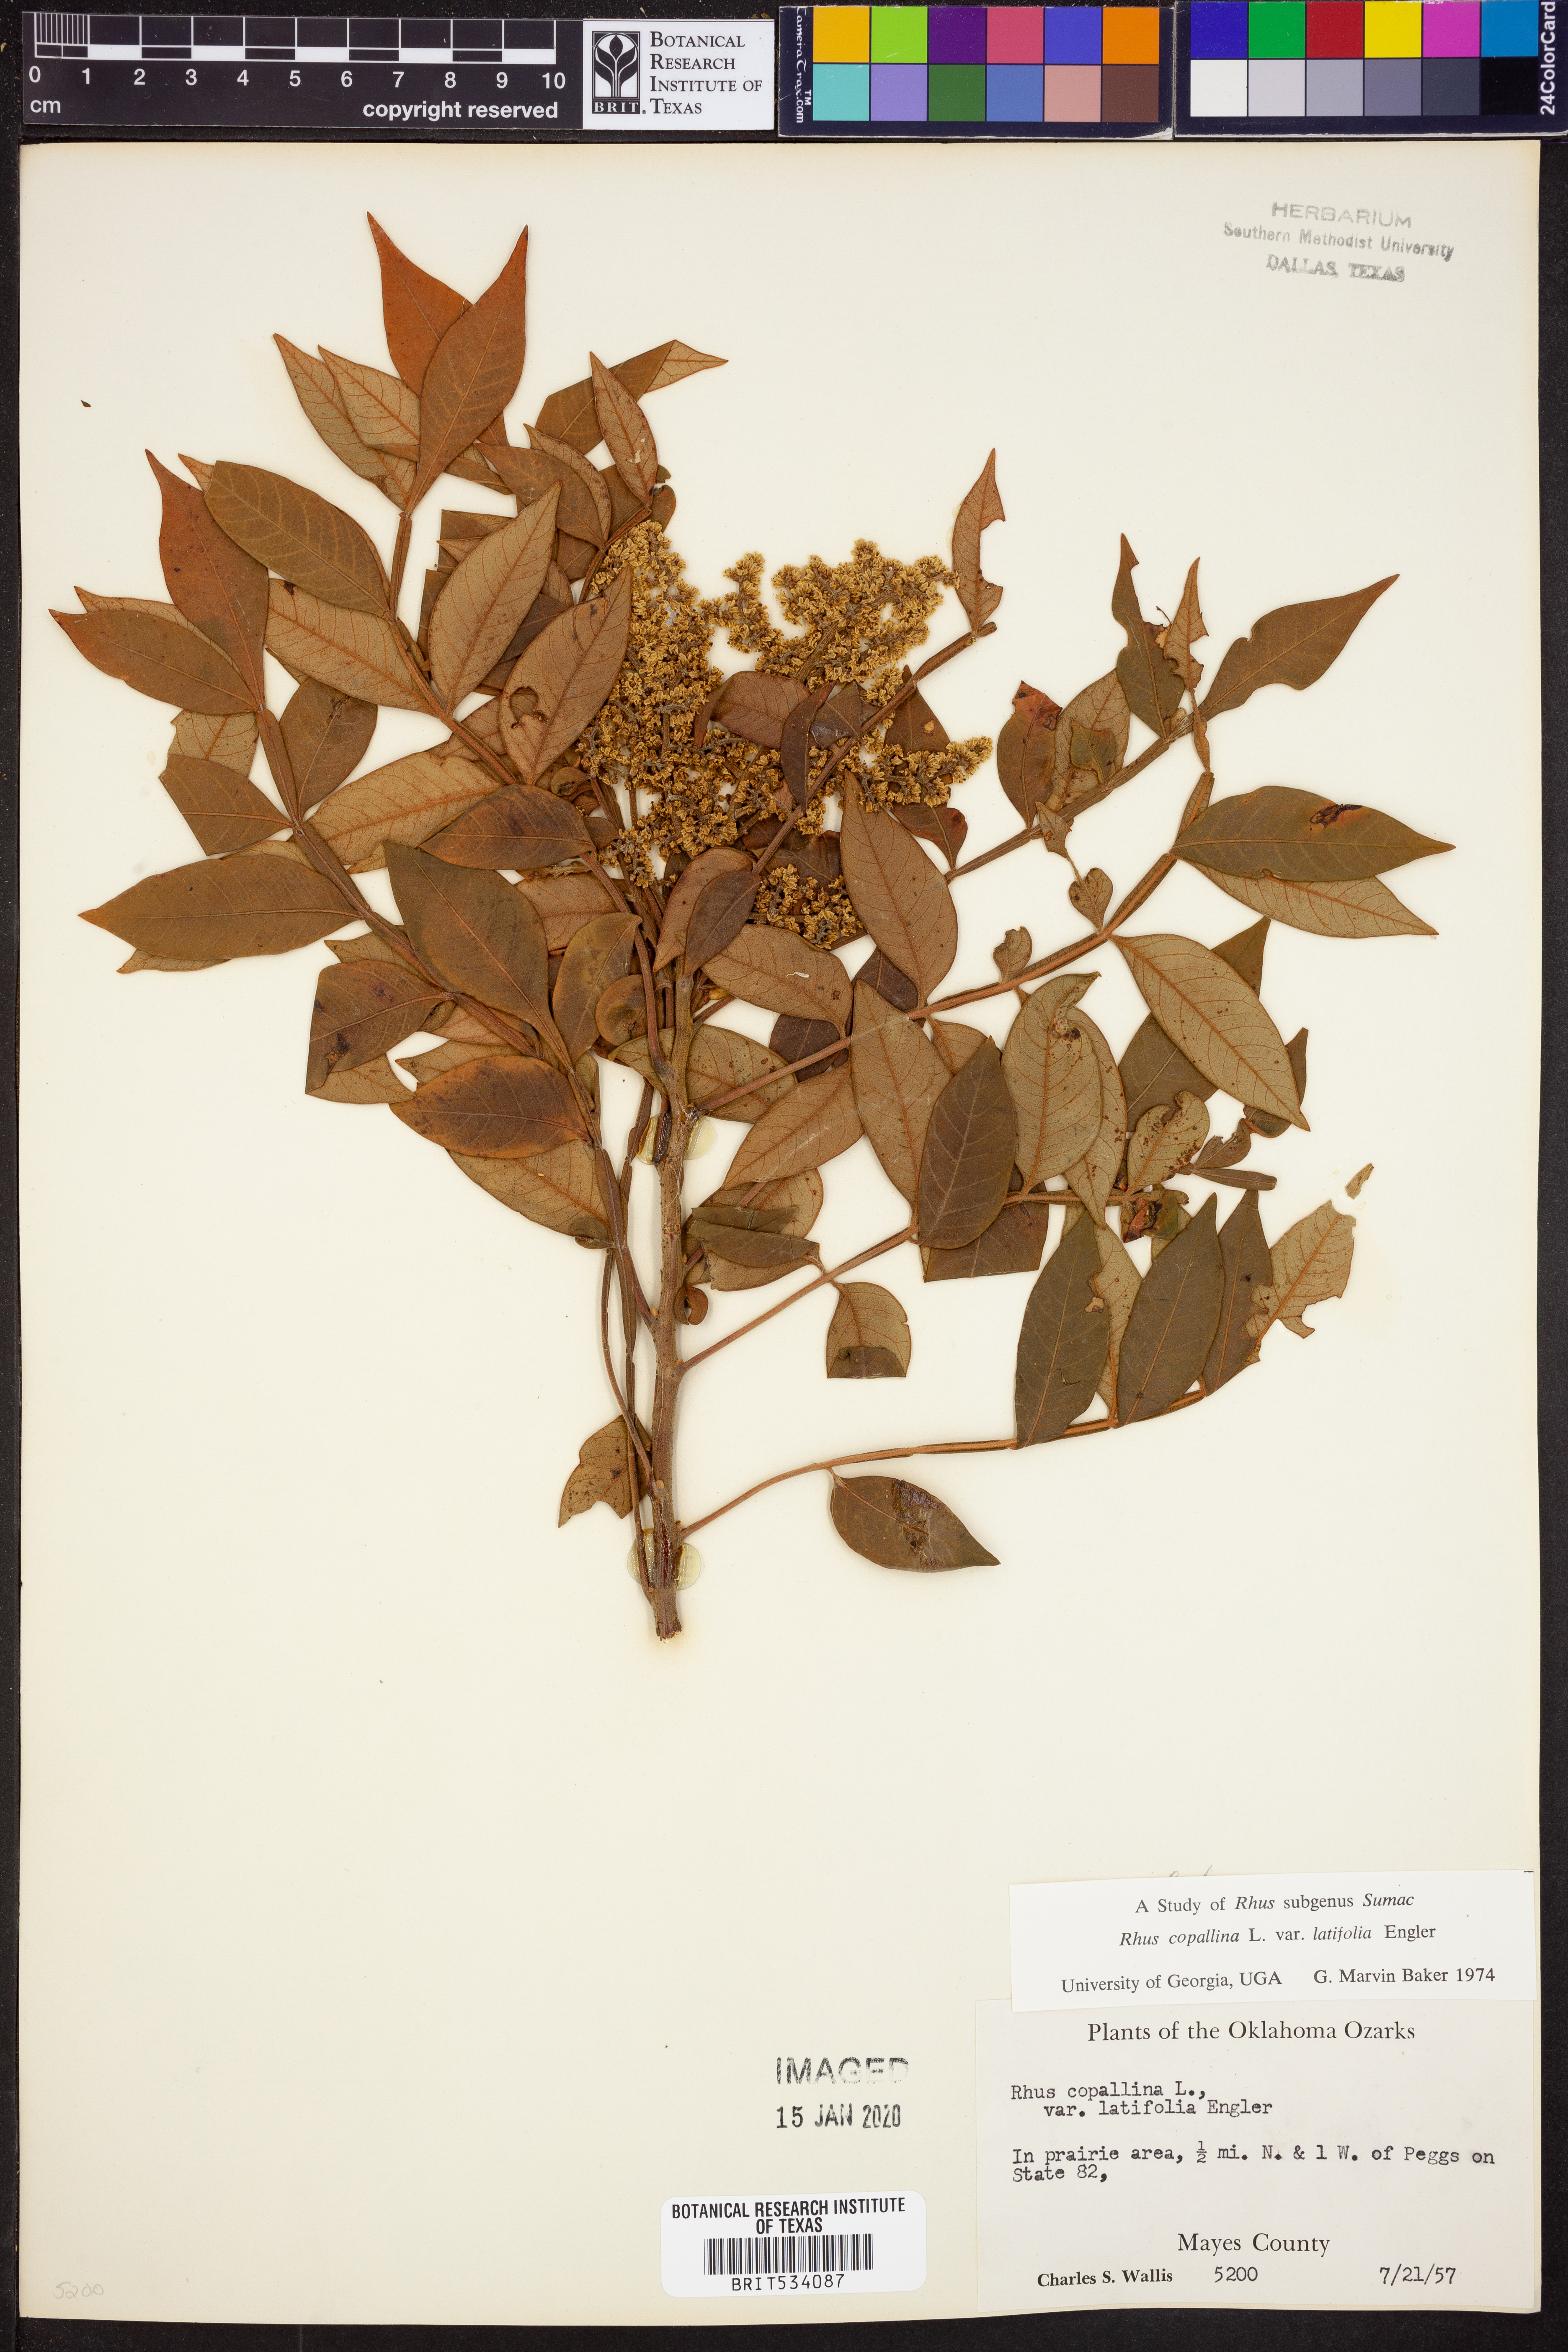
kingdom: Plantae
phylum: Tracheophyta
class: Magnoliopsida
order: Sapindales
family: Anacardiaceae
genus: Rhus
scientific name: Rhus copallina
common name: Shining sumac
